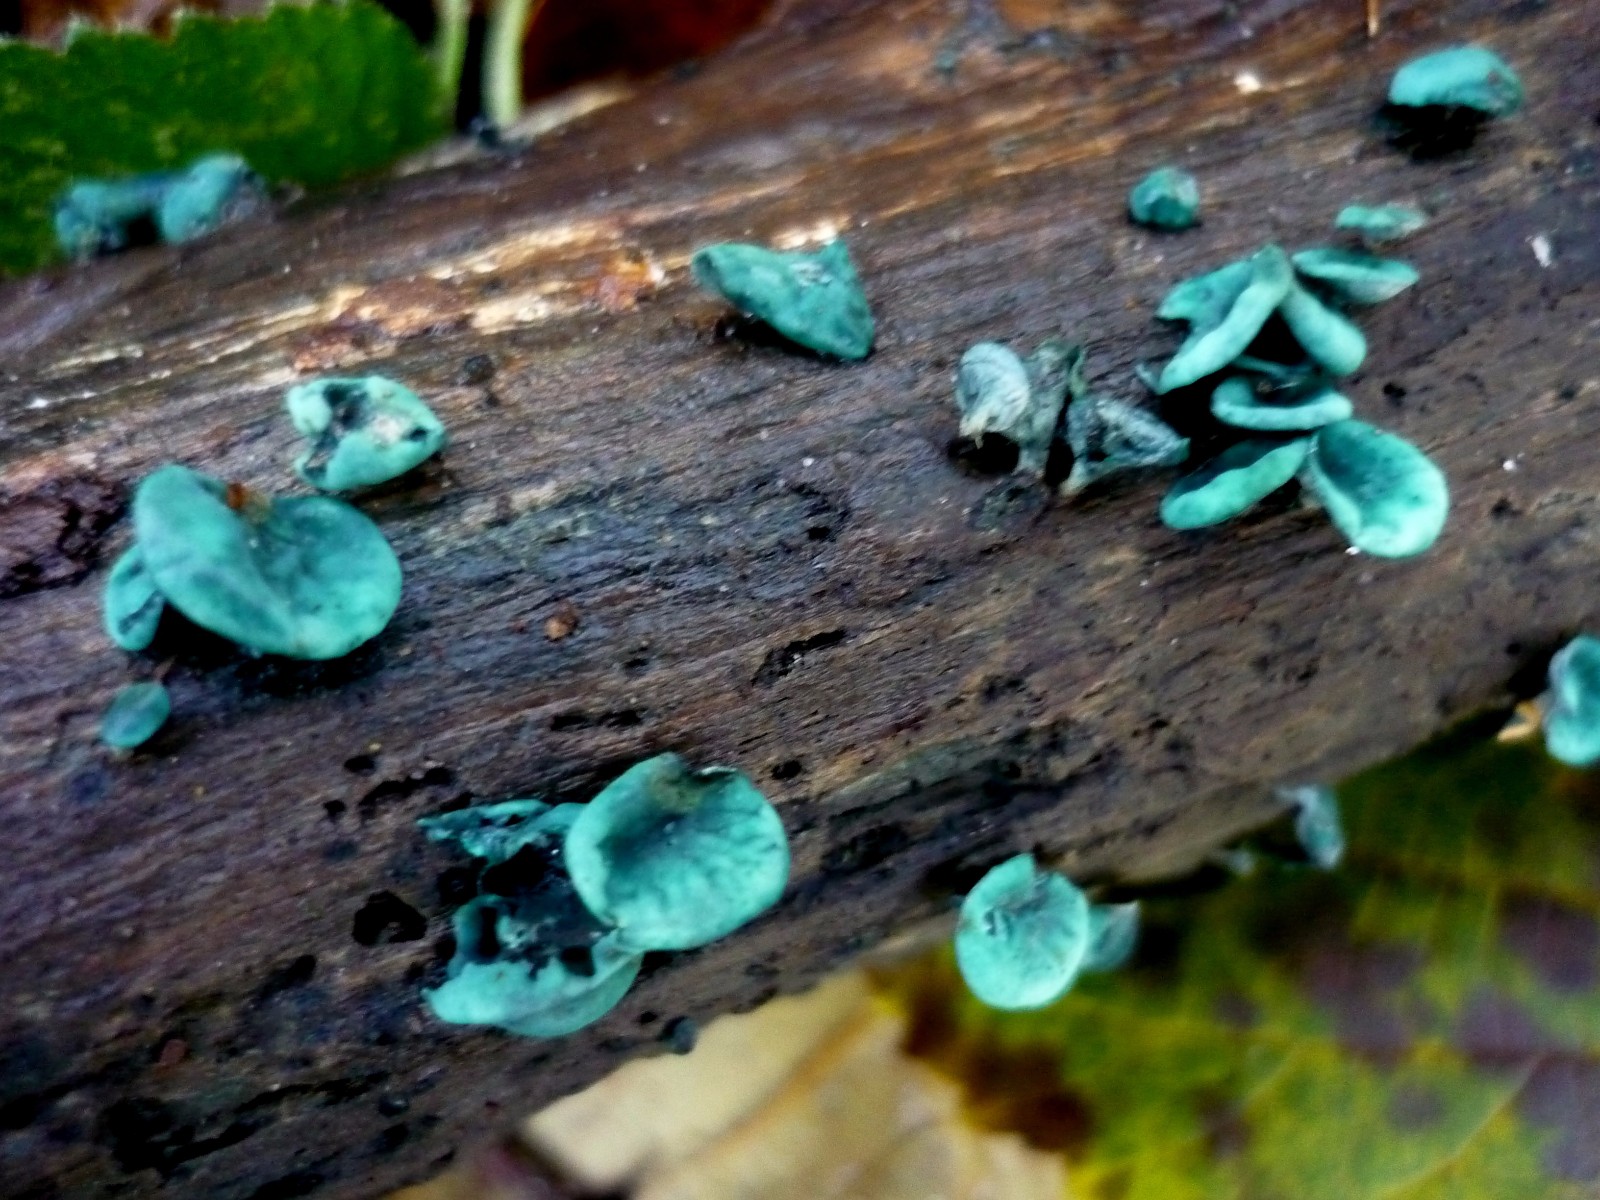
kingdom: Fungi
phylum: Ascomycota
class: Leotiomycetes
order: Helotiales
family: Chlorociboriaceae
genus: Chlorociboria
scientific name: Chlorociboria aeruginascens
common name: almindelig grønskive
